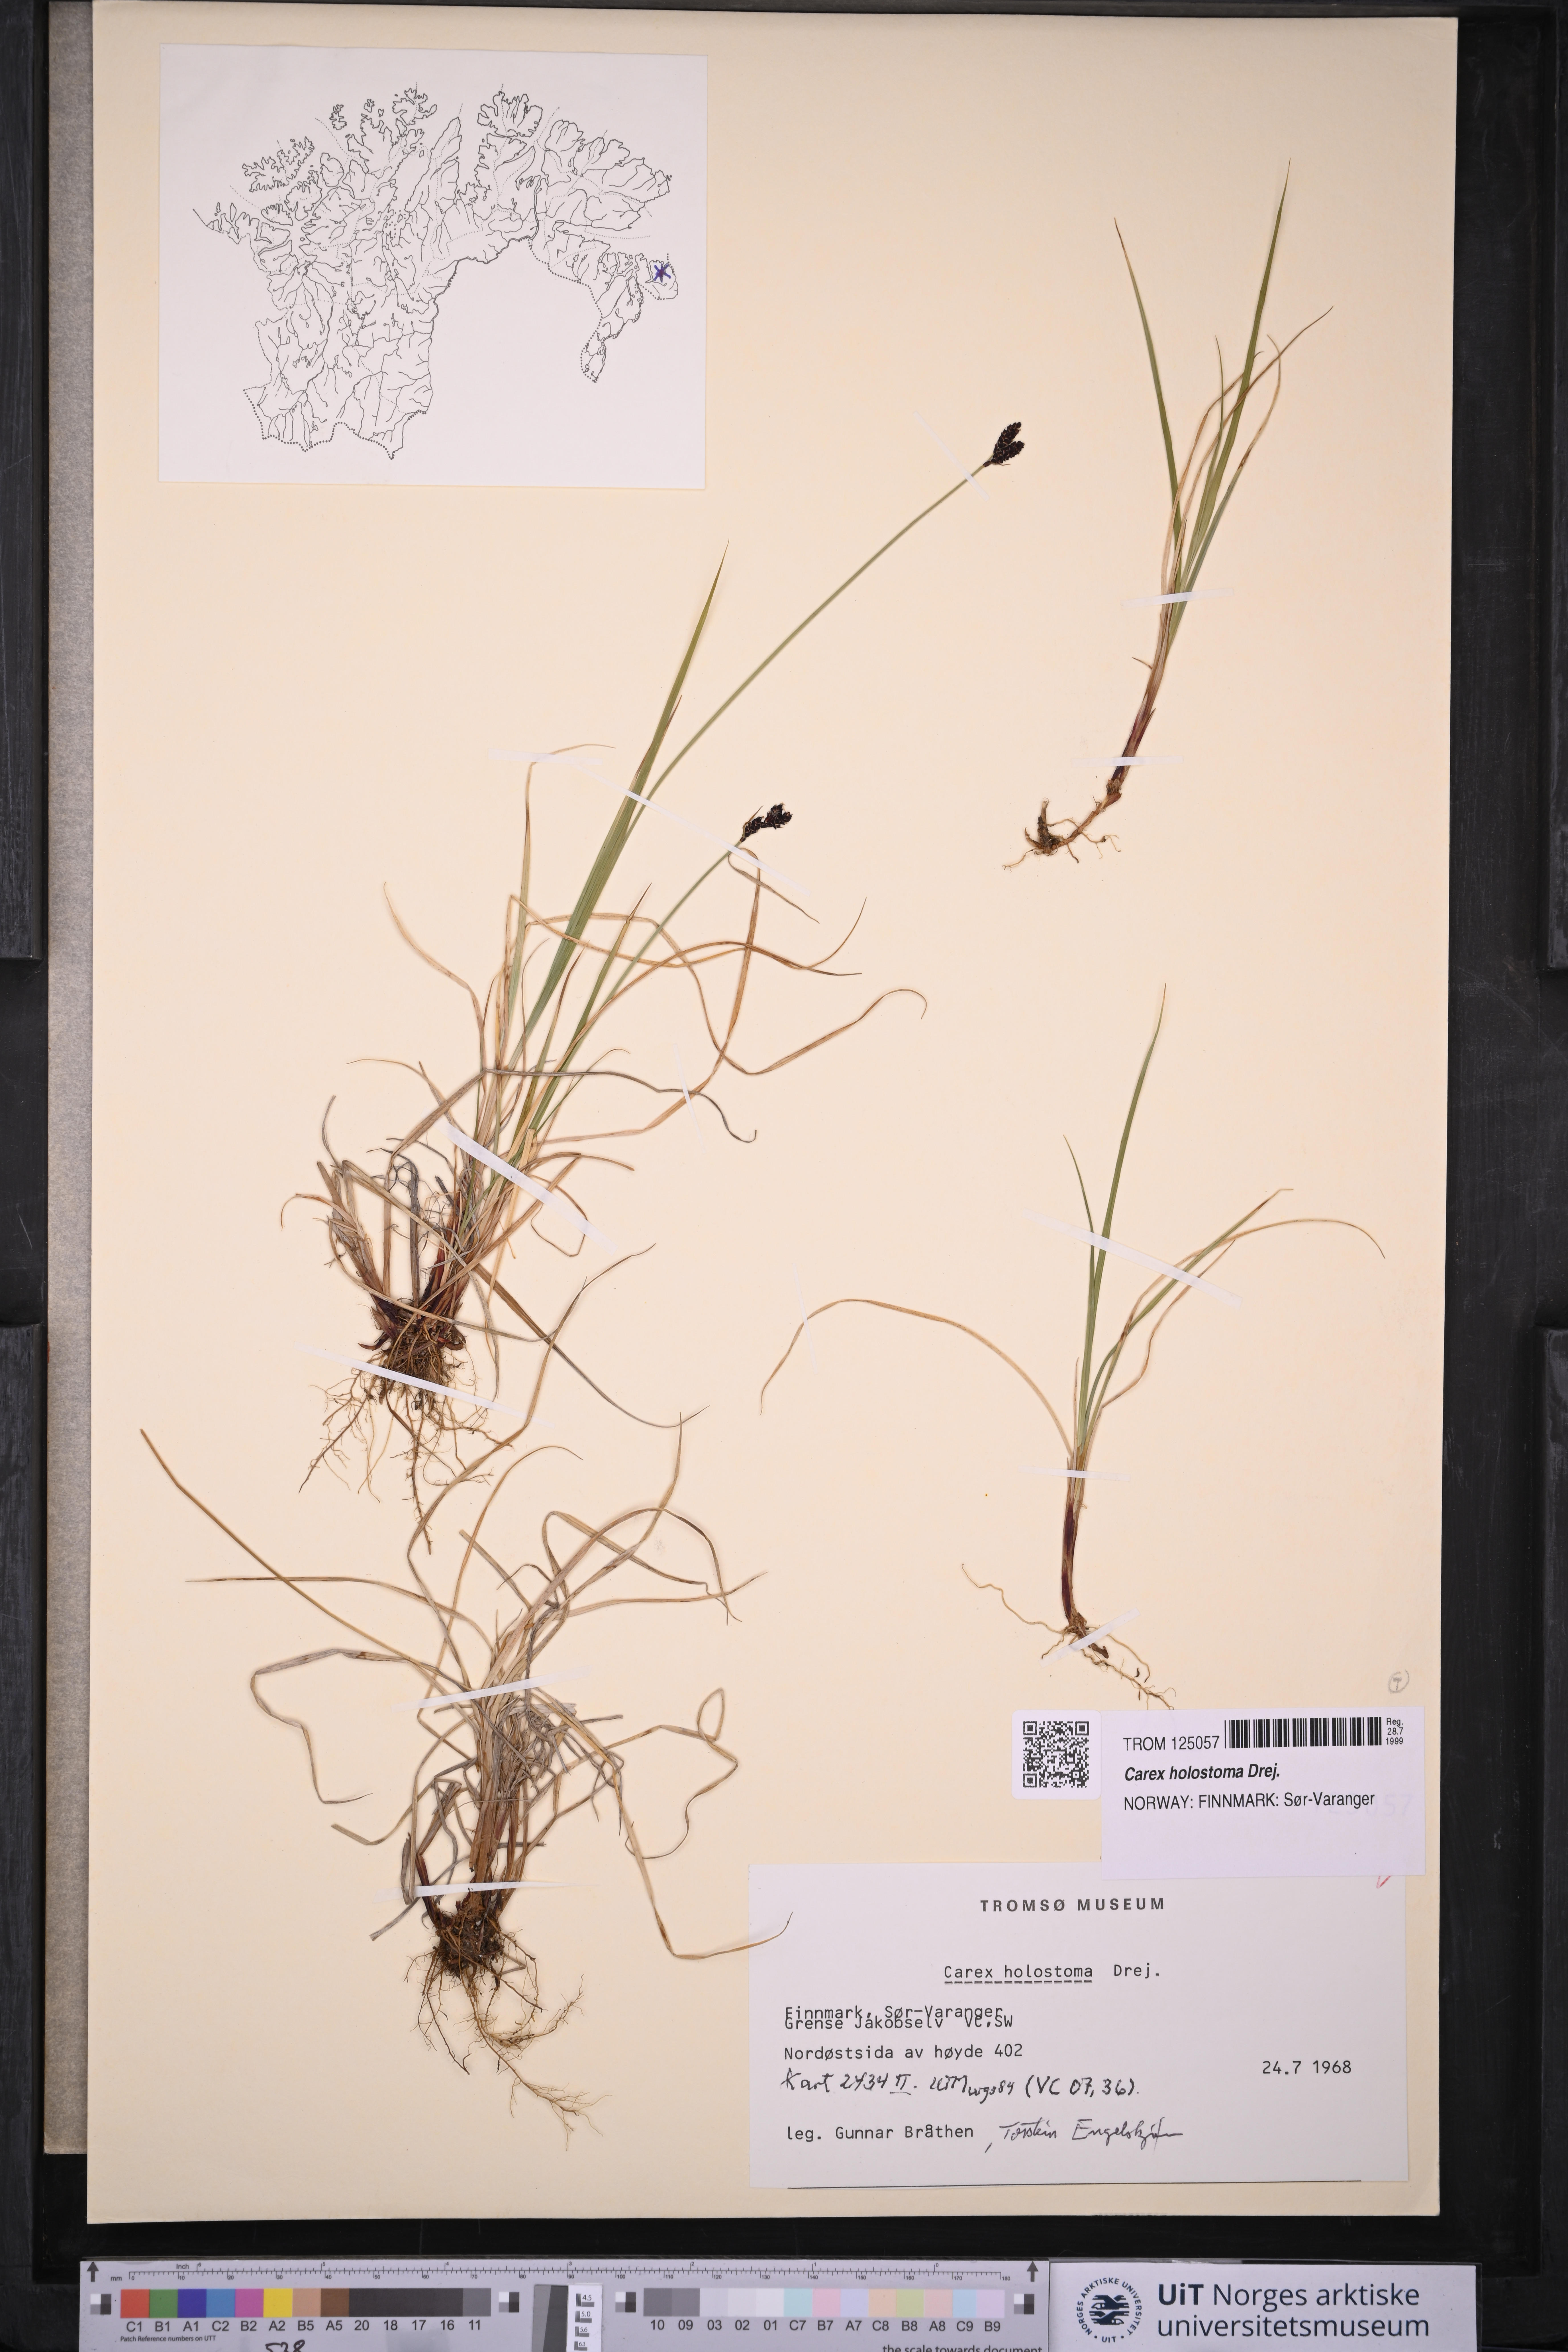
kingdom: Plantae
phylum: Tracheophyta
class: Liliopsida
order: Poales
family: Cyperaceae
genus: Carex
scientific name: Carex holostoma
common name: Arctic marsh sedge
